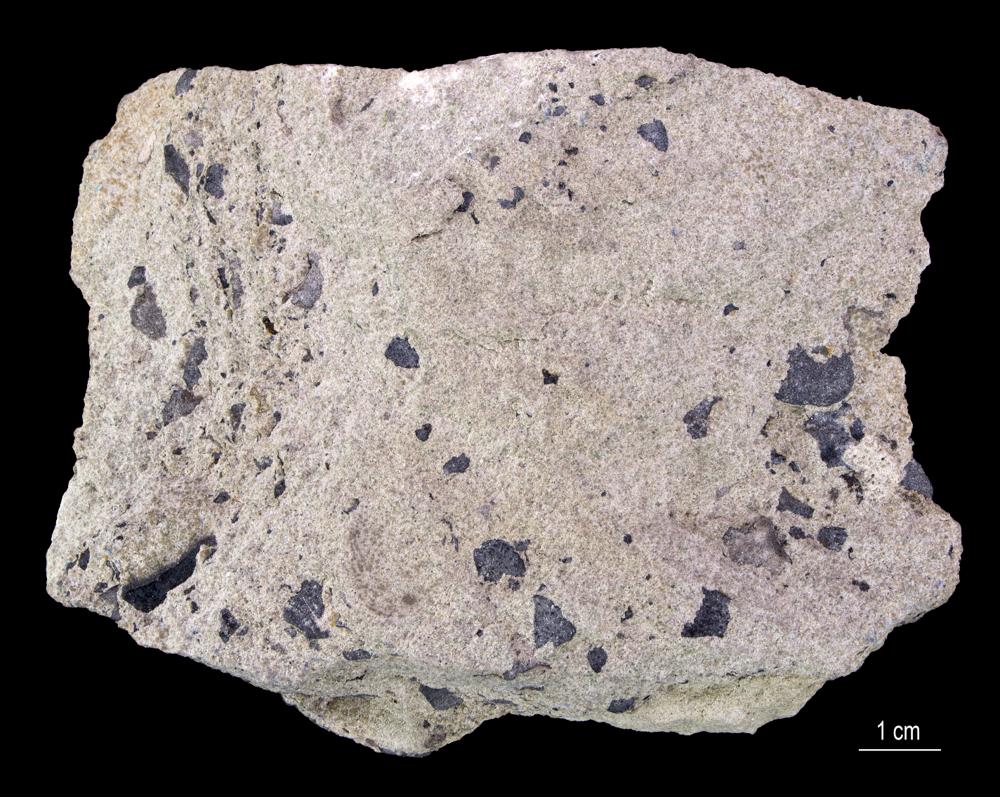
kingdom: Animalia
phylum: Arthropoda
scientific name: Arthropoda
